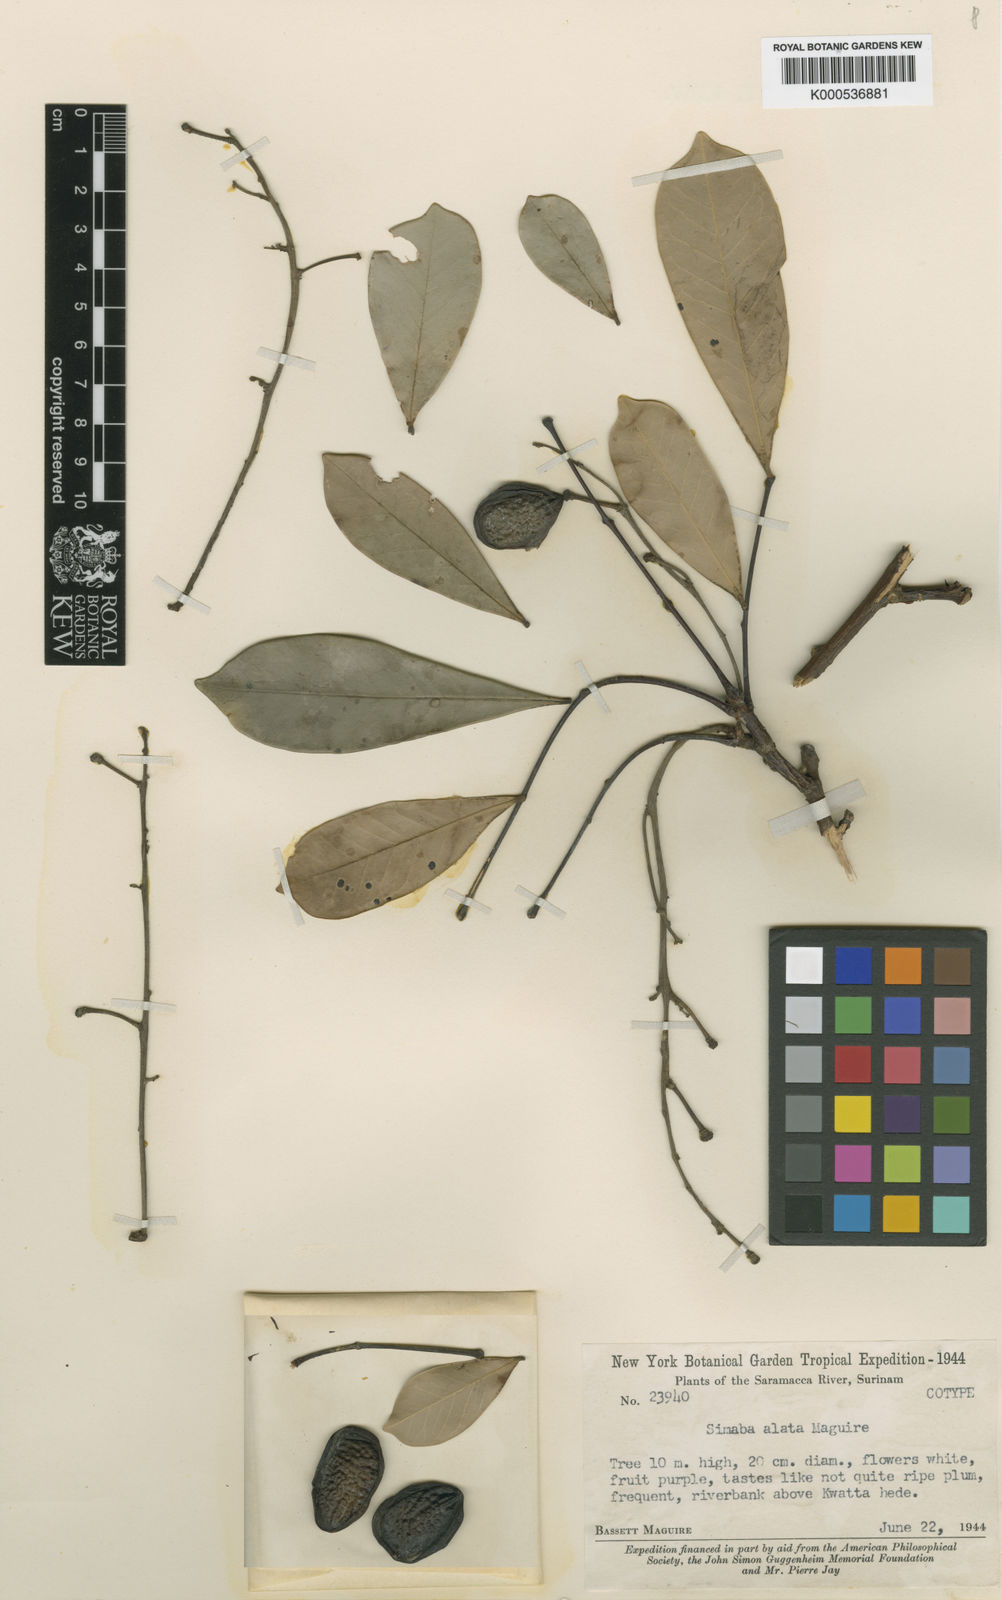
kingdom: Plantae
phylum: Tracheophyta
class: Magnoliopsida
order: Sapindales
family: Simaroubaceae
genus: Quassia
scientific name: Quassia
